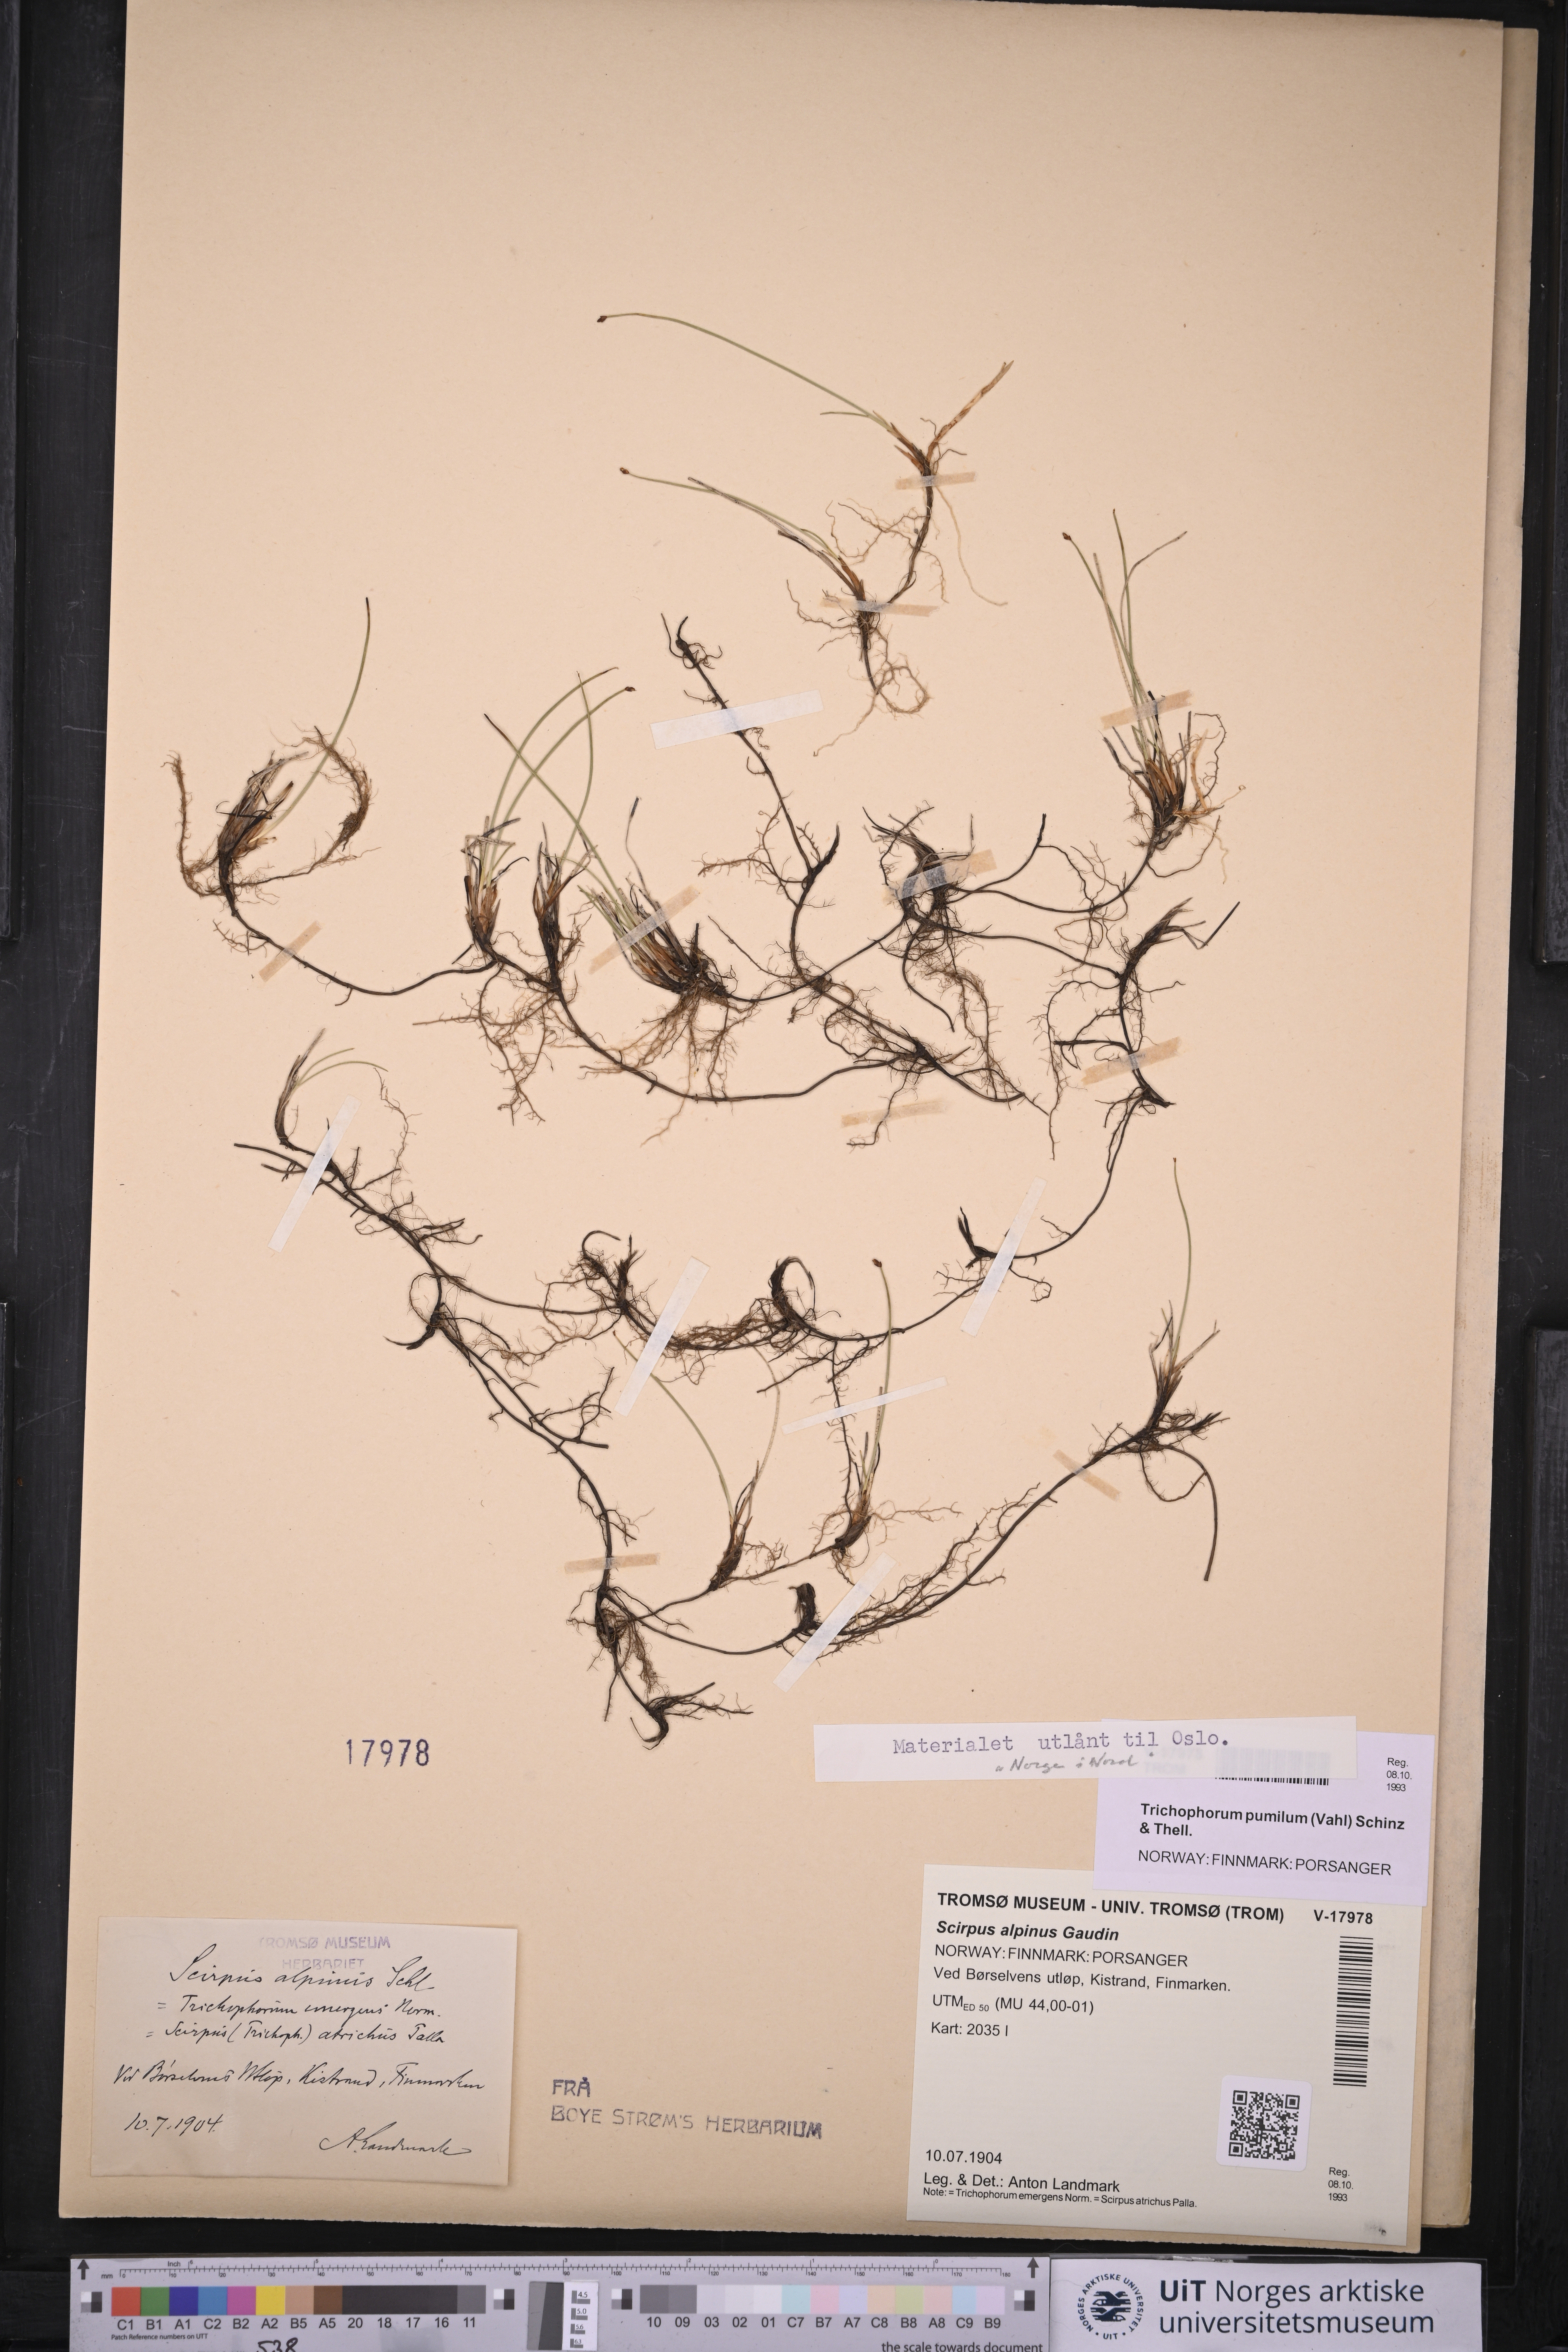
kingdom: Plantae
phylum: Tracheophyta
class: Liliopsida
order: Poales
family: Cyperaceae
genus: Trichophorum
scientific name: Trichophorum pumilum
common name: Rolland's bulrush
